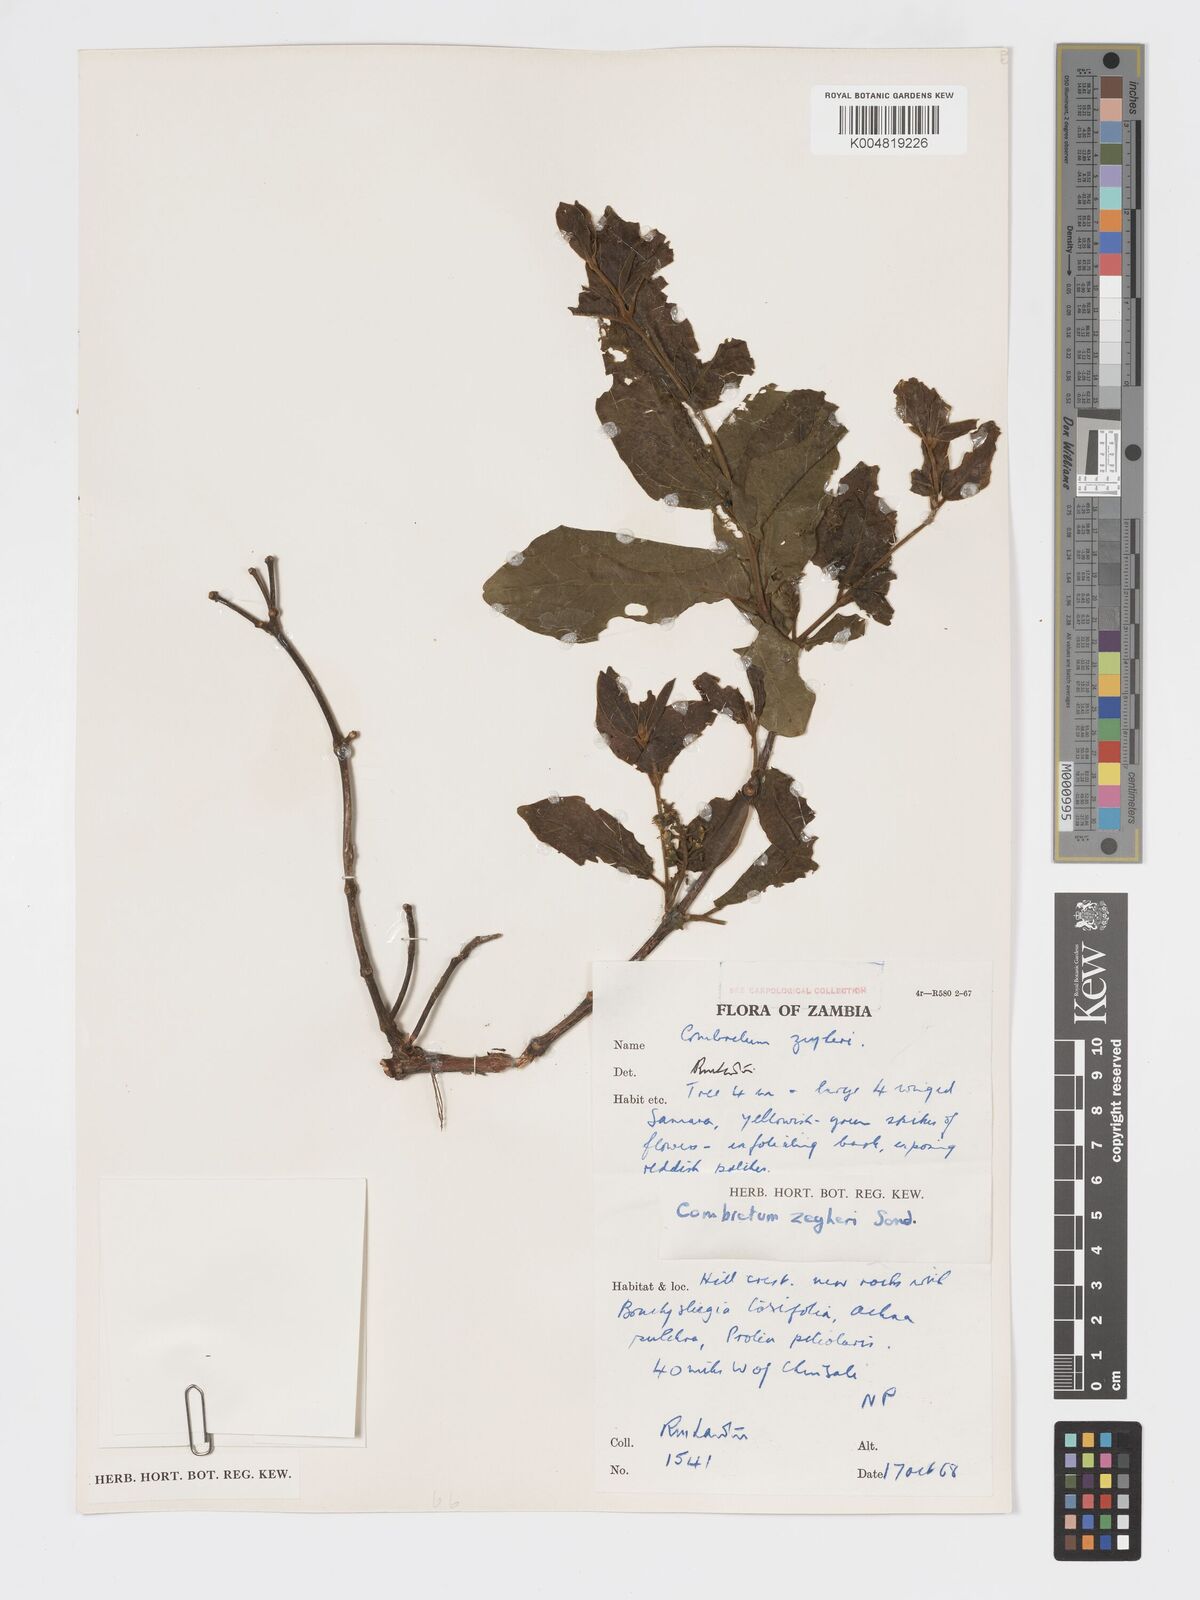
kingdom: Plantae
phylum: Tracheophyta
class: Magnoliopsida
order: Myrtales
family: Combretaceae
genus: Combretum
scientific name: Combretum zeyheri
